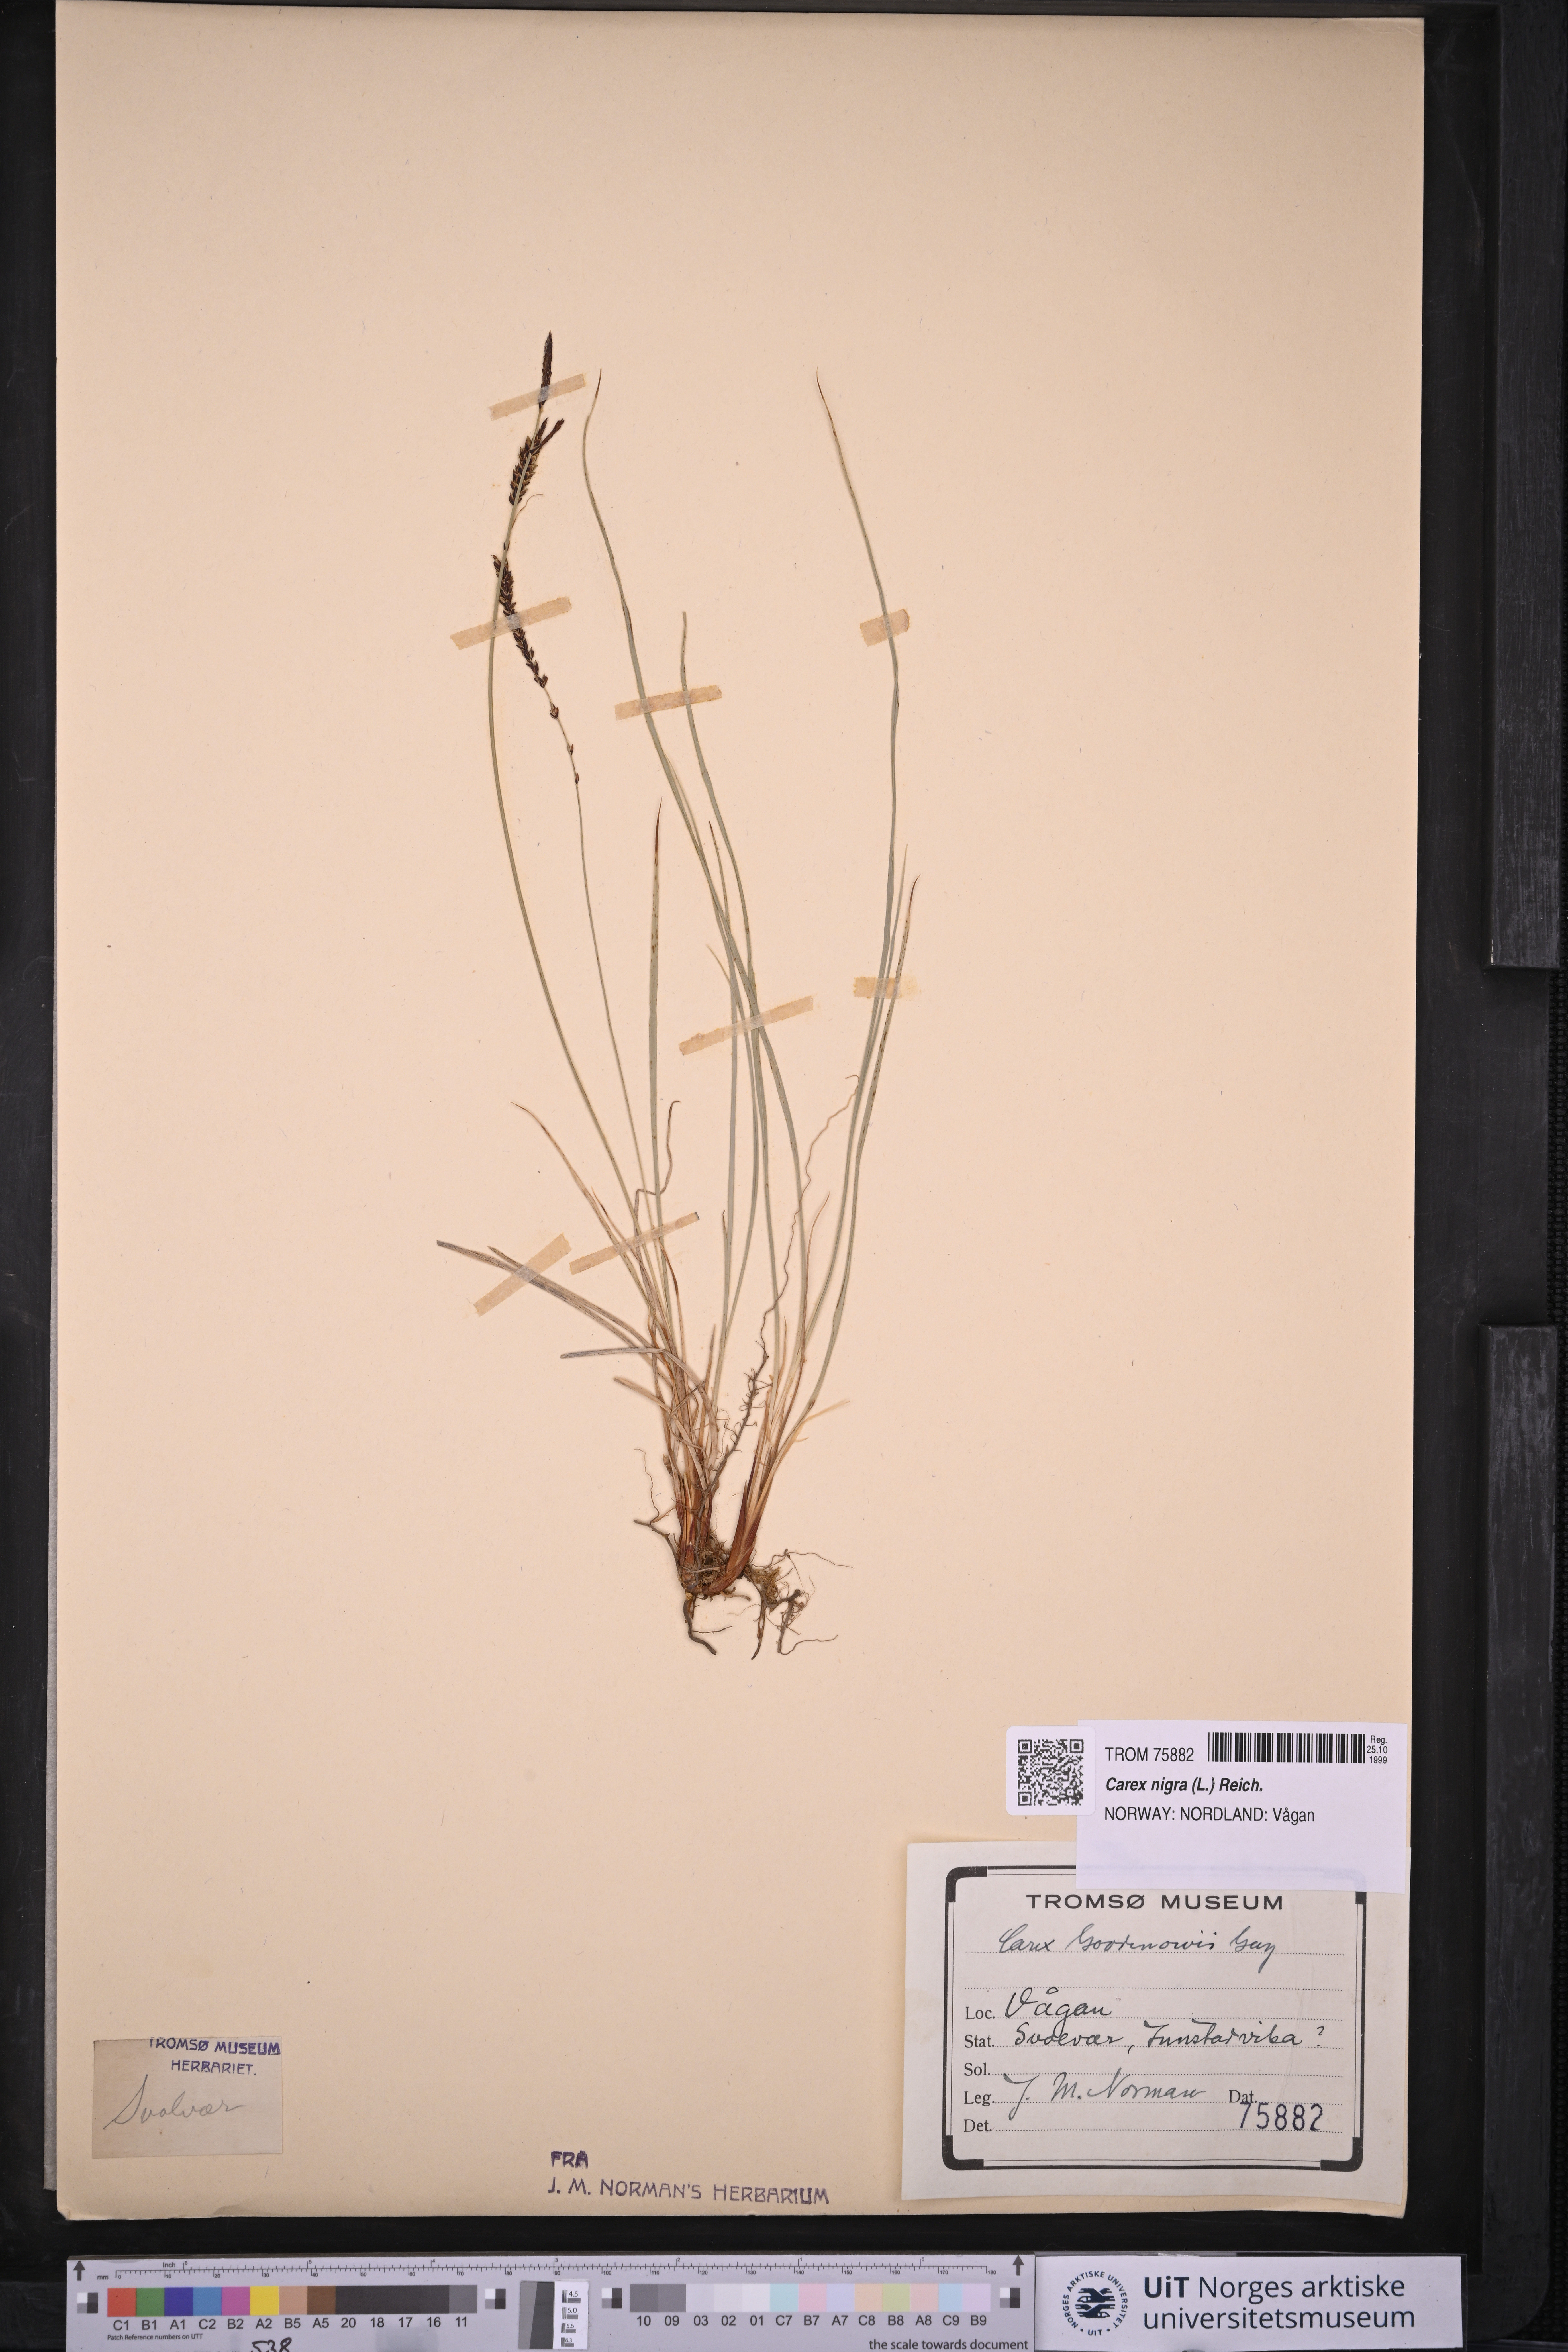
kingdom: Plantae
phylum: Tracheophyta
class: Liliopsida
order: Poales
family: Cyperaceae
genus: Carex
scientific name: Carex nigra
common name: Common sedge
